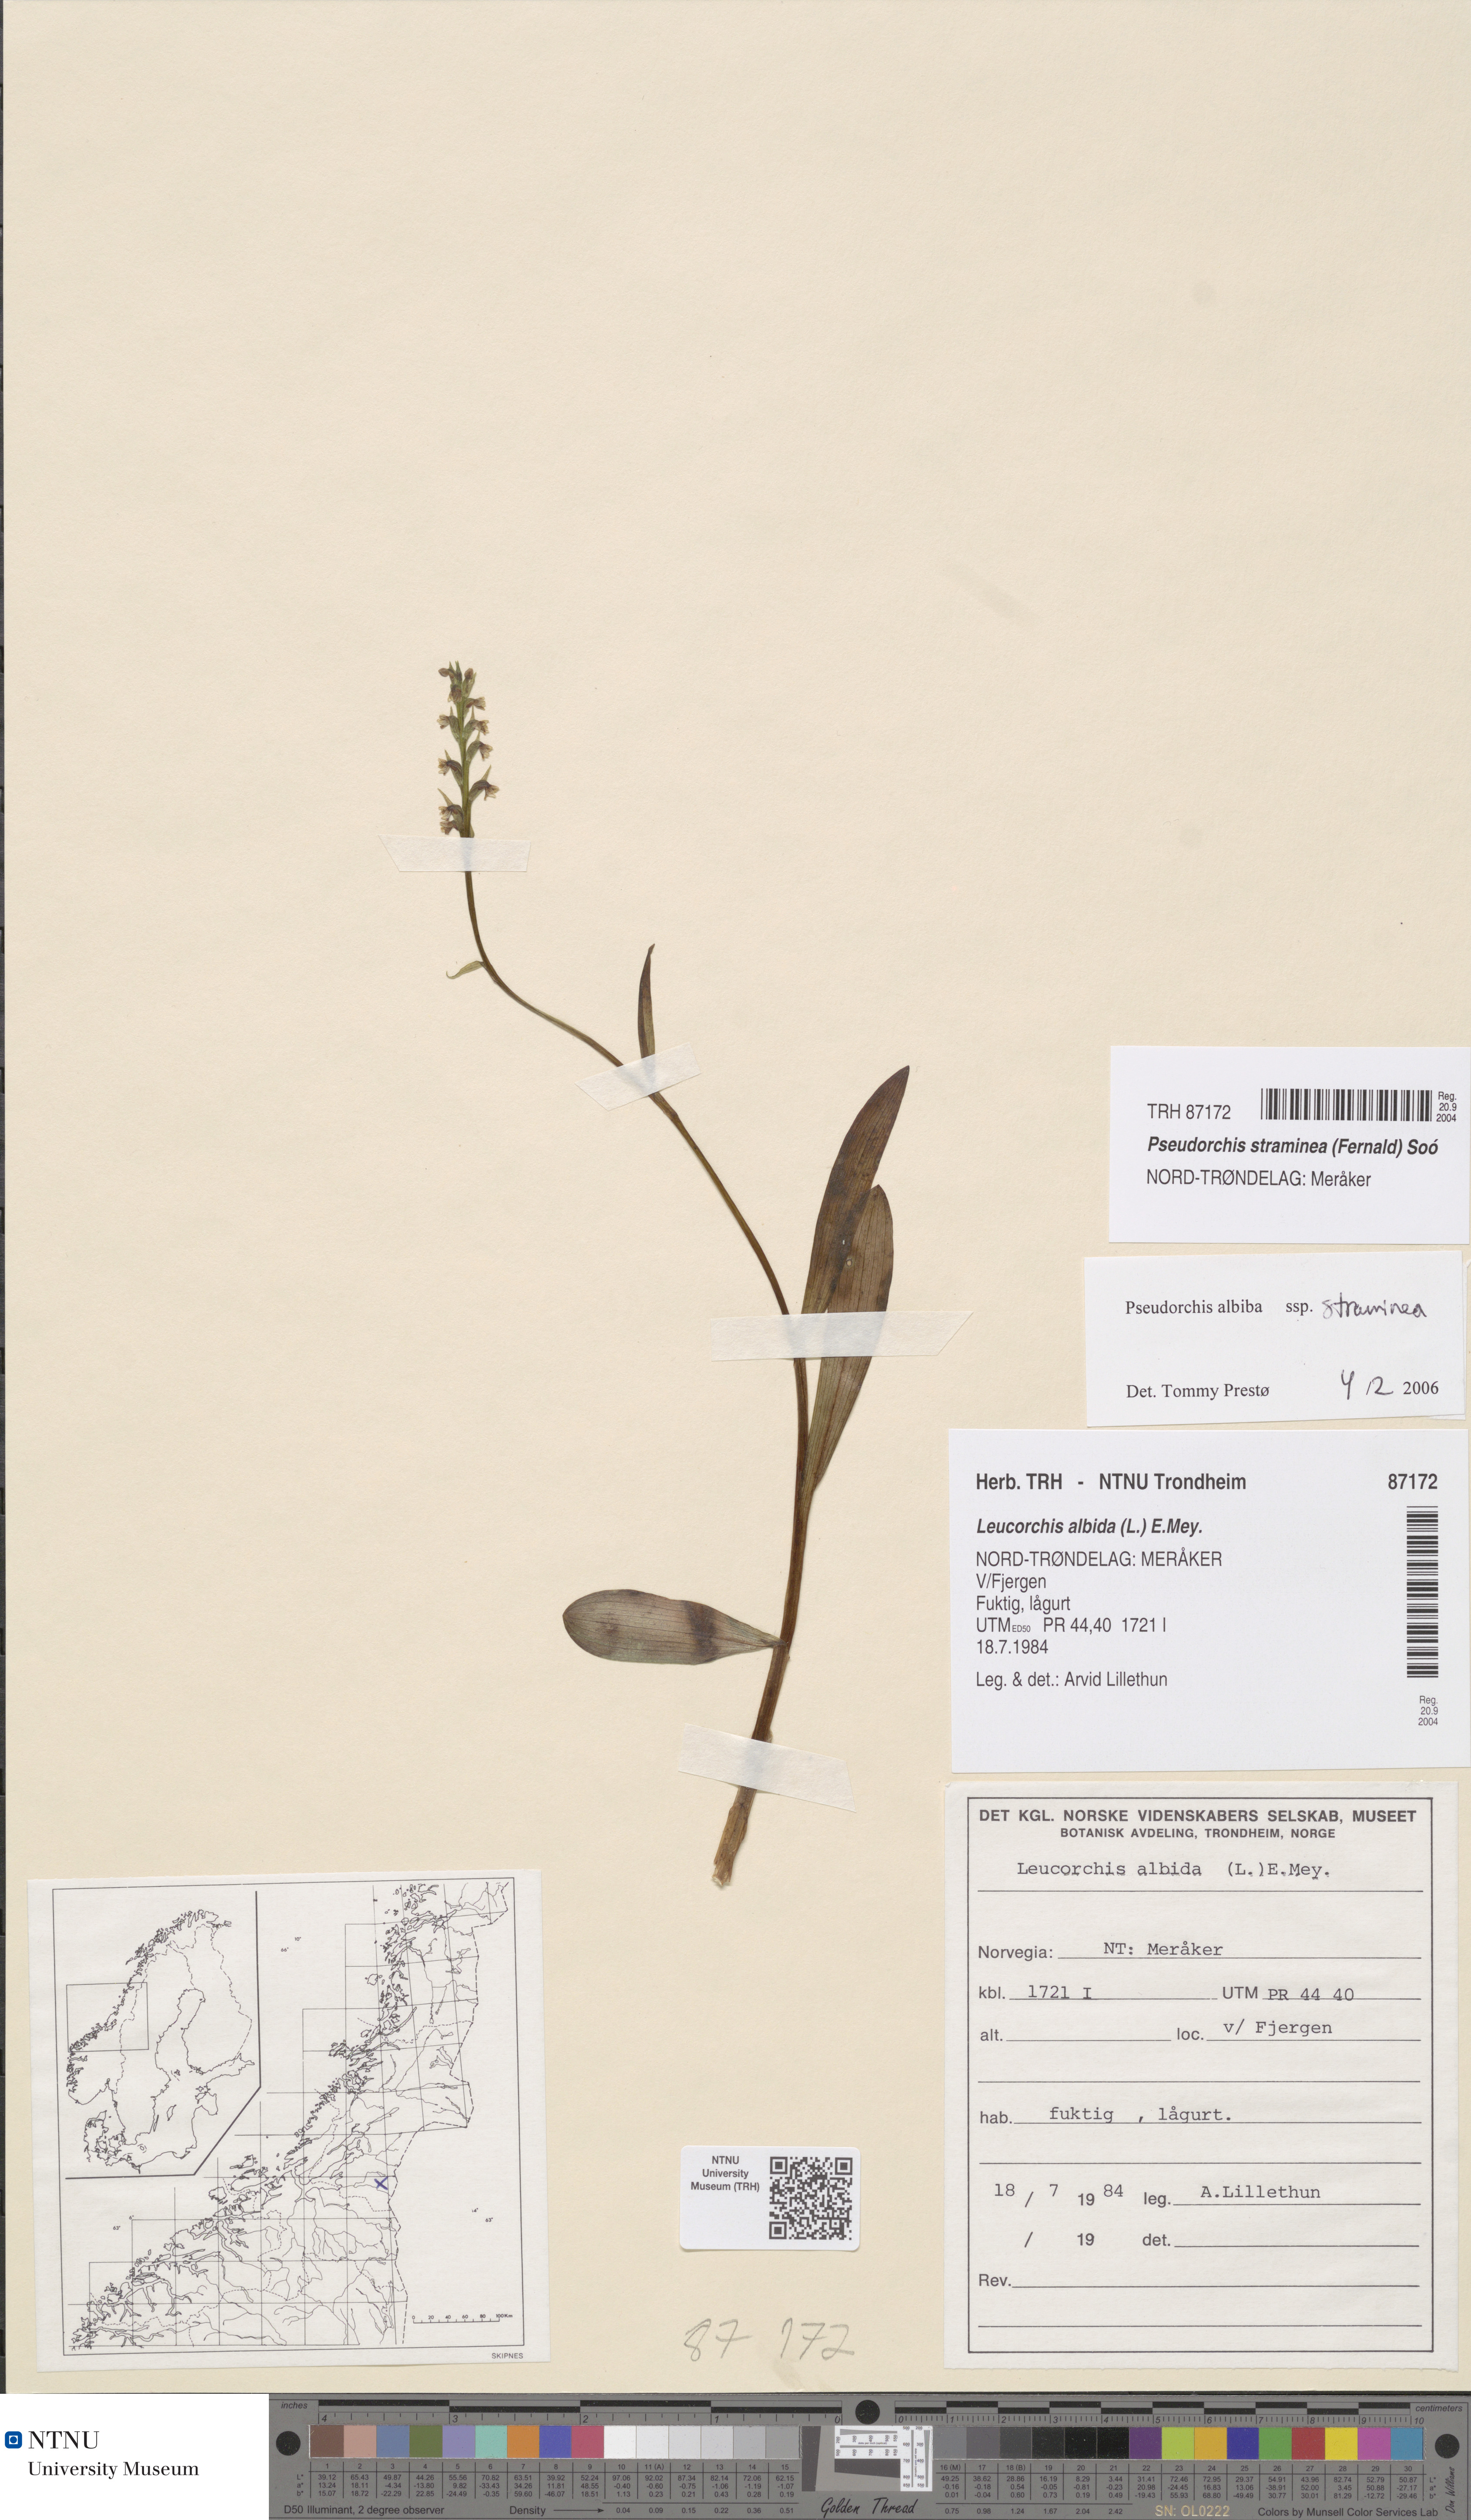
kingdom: Plantae
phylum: Tracheophyta
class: Liliopsida
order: Asparagales
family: Orchidaceae
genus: Pseudorchis
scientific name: Pseudorchis straminea
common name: Vanilla-scented bog orchid
